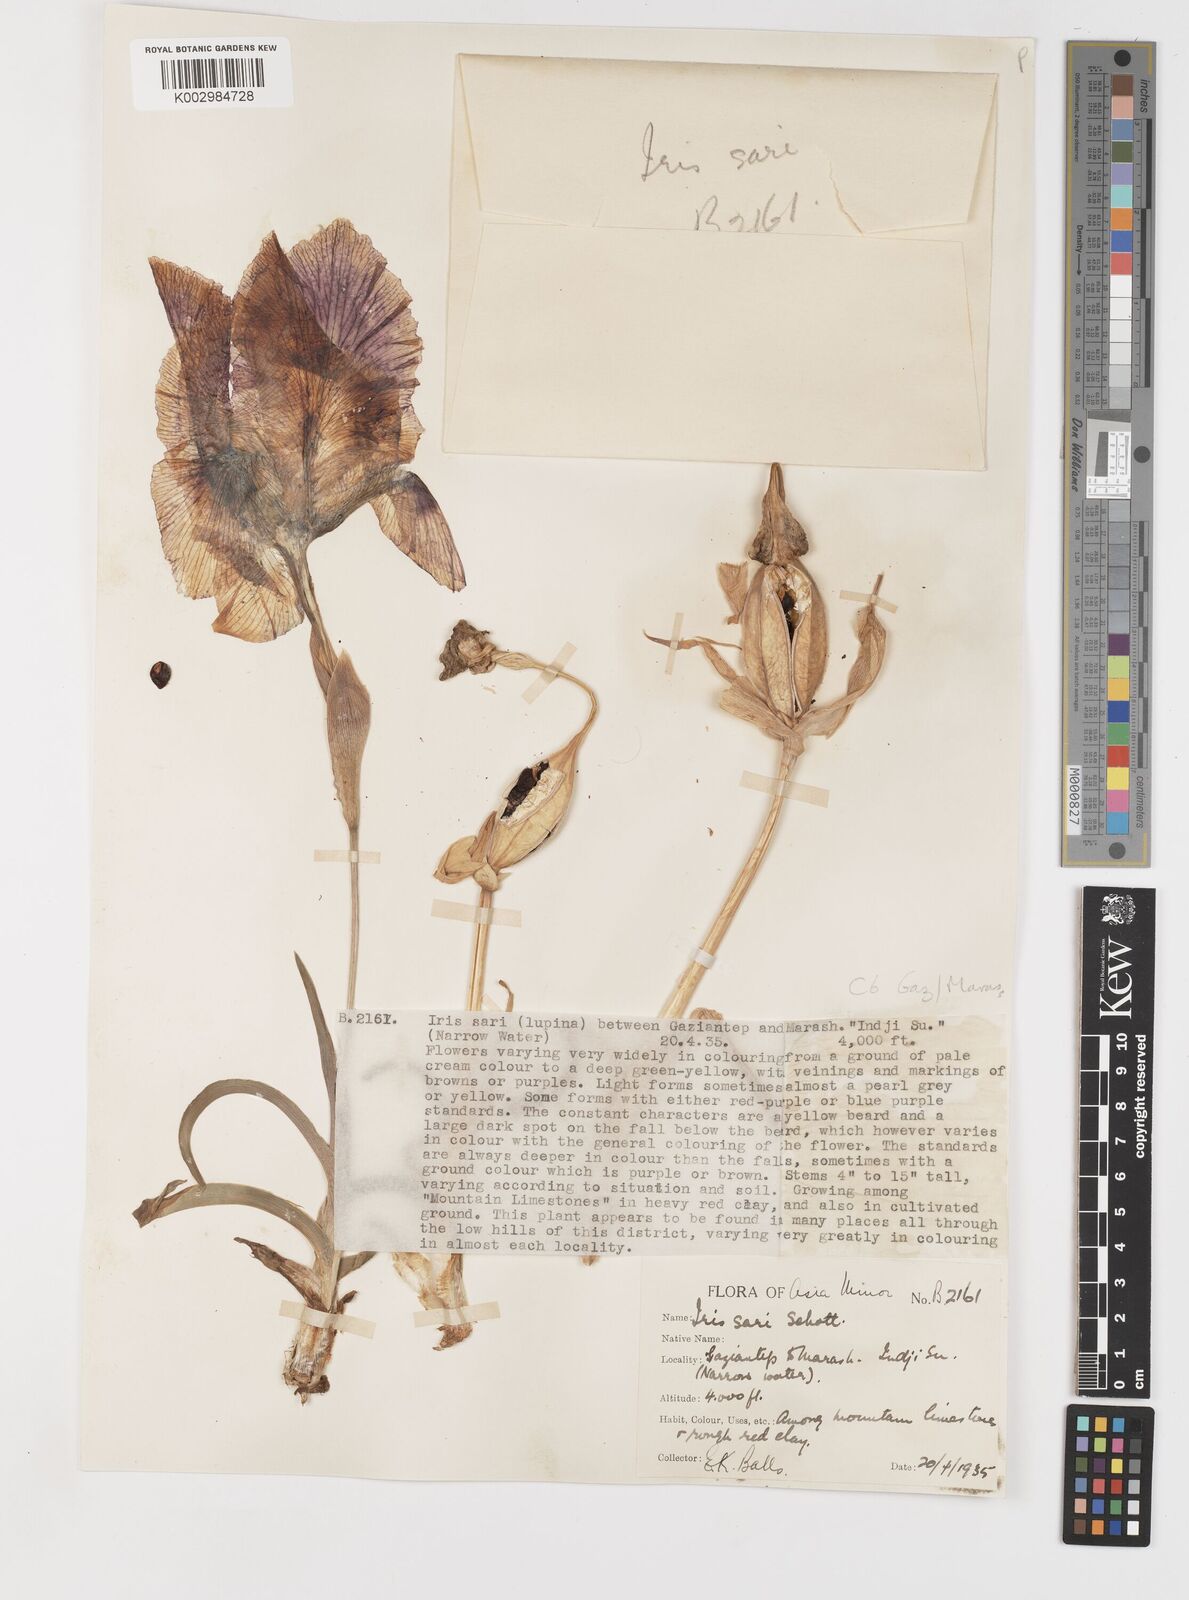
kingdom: Plantae
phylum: Tracheophyta
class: Liliopsida
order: Asparagales
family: Iridaceae
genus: Iris
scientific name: Iris sari
